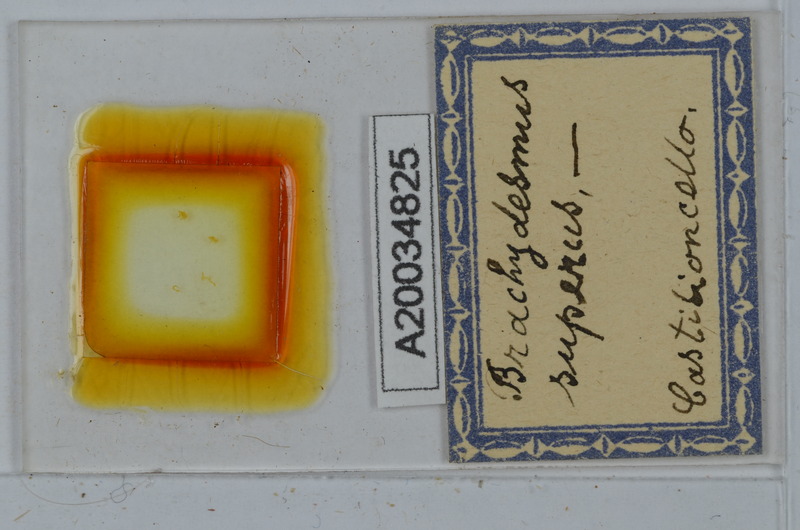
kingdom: Animalia
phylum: Arthropoda
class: Diplopoda
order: Polydesmida
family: Polydesmidae
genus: Brachydesmus
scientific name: Brachydesmus superus
